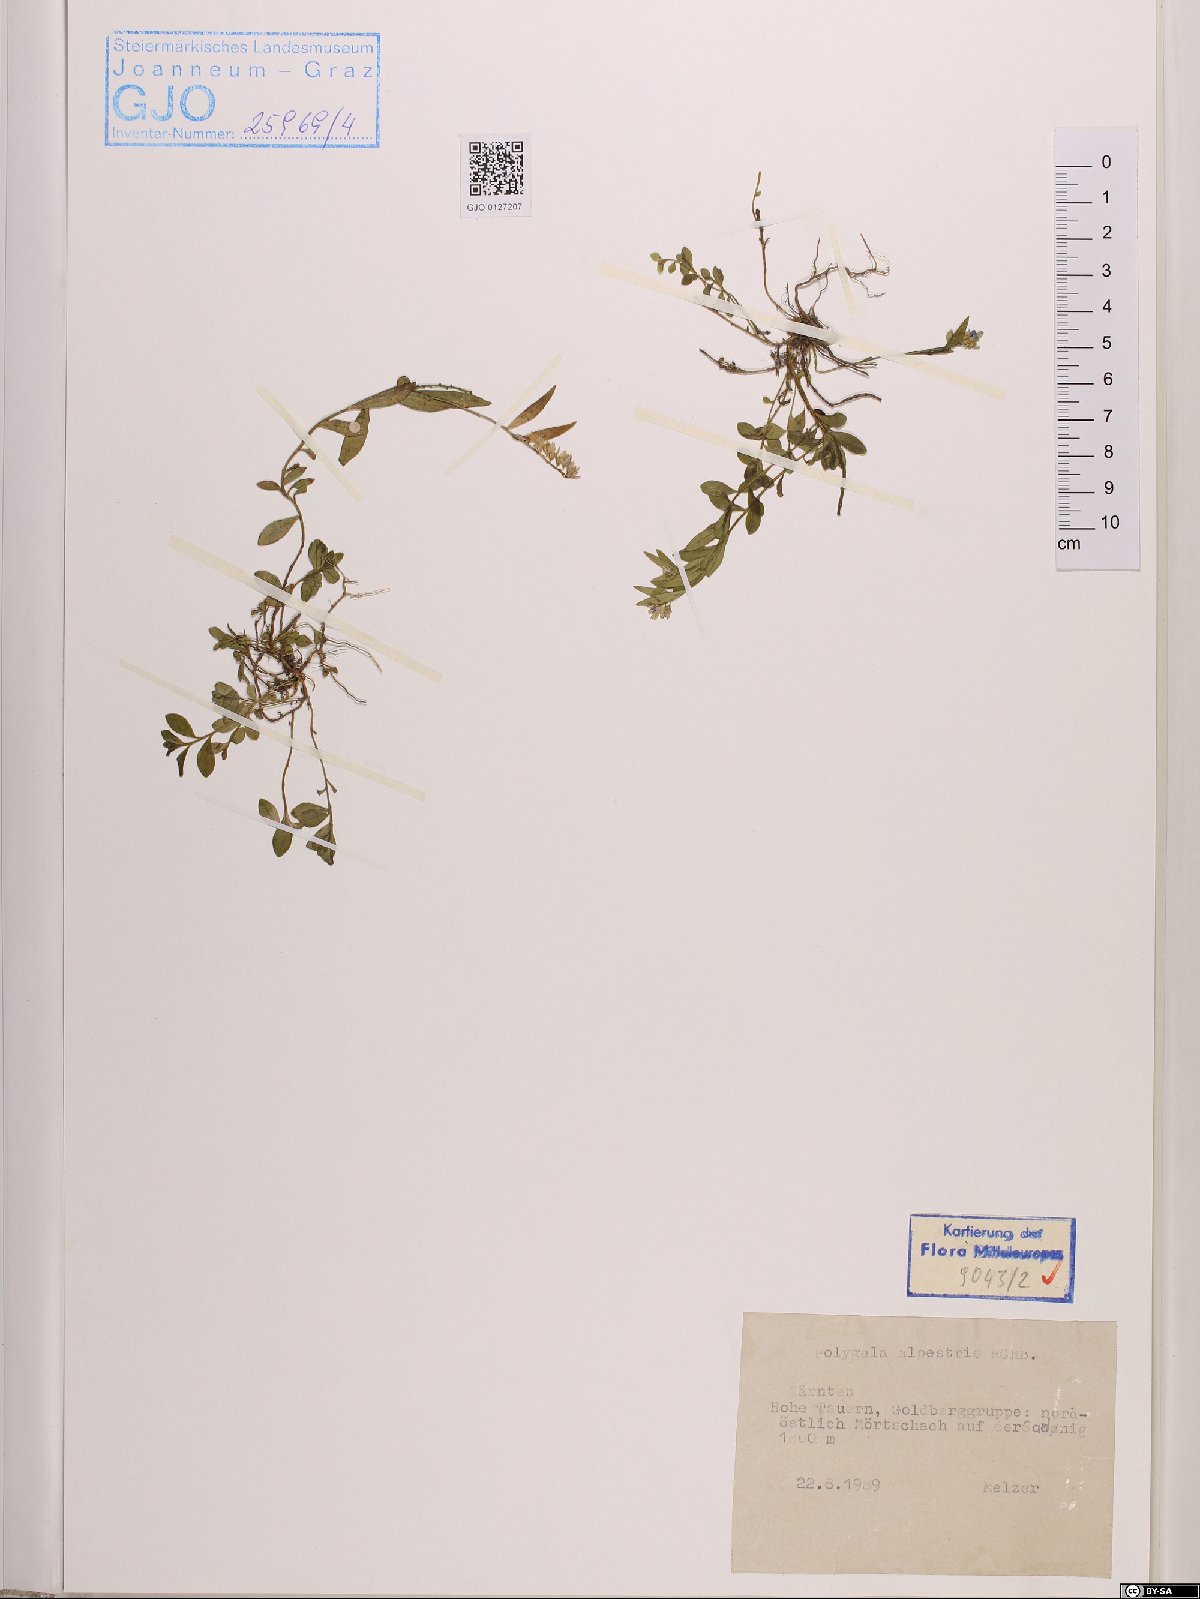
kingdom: Plantae
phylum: Tracheophyta
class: Magnoliopsida
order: Fabales
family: Polygalaceae
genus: Polygala
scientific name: Polygala alpestris
